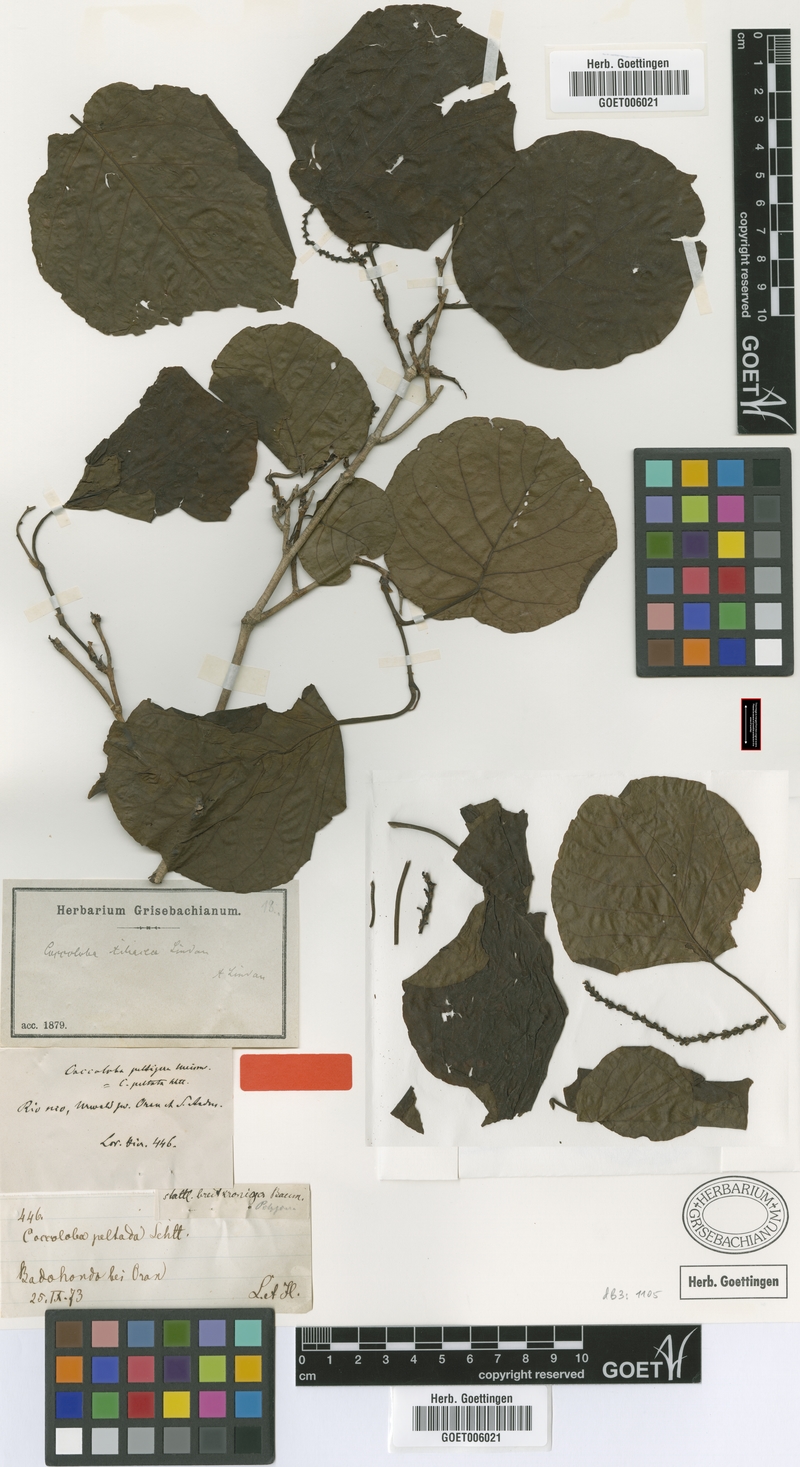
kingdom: Plantae
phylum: Tracheophyta
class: Magnoliopsida
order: Caryophyllales
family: Polygonaceae
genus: Coccoloba
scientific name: Coccoloba tiliacea
